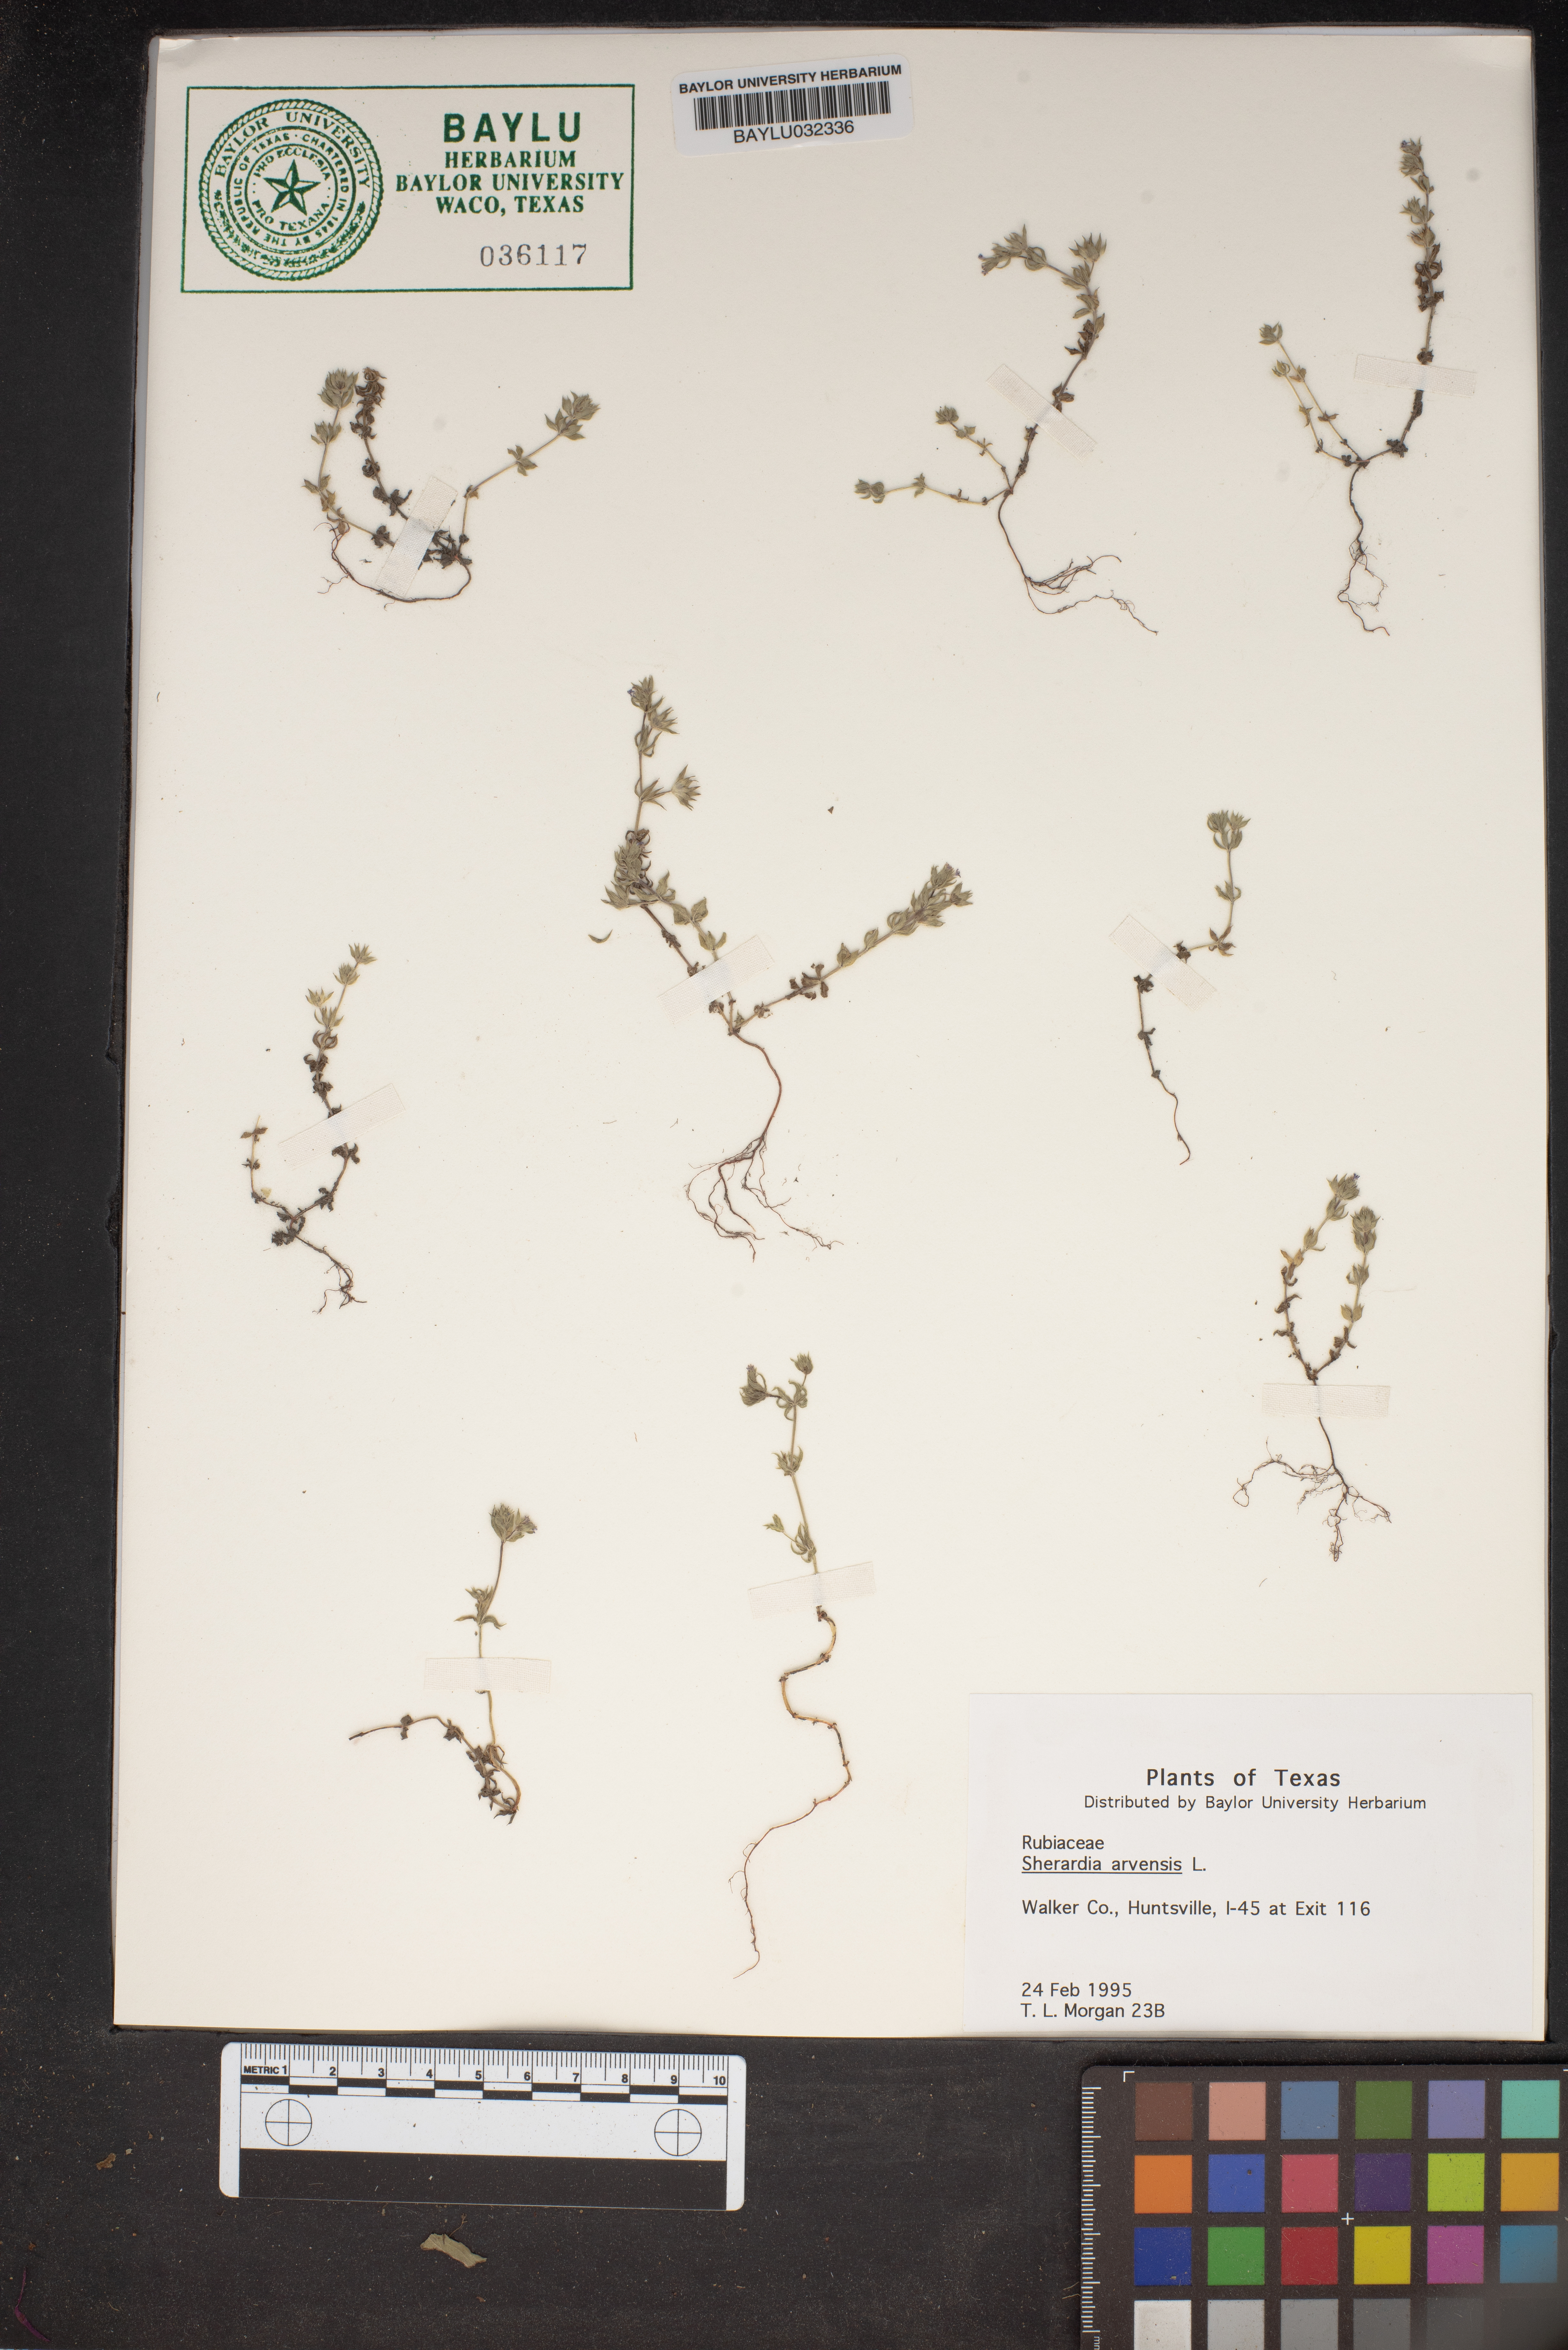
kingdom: Plantae
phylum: Tracheophyta
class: Magnoliopsida
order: Gentianales
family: Rubiaceae
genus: Sherardia
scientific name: Sherardia arvensis
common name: Field madder
